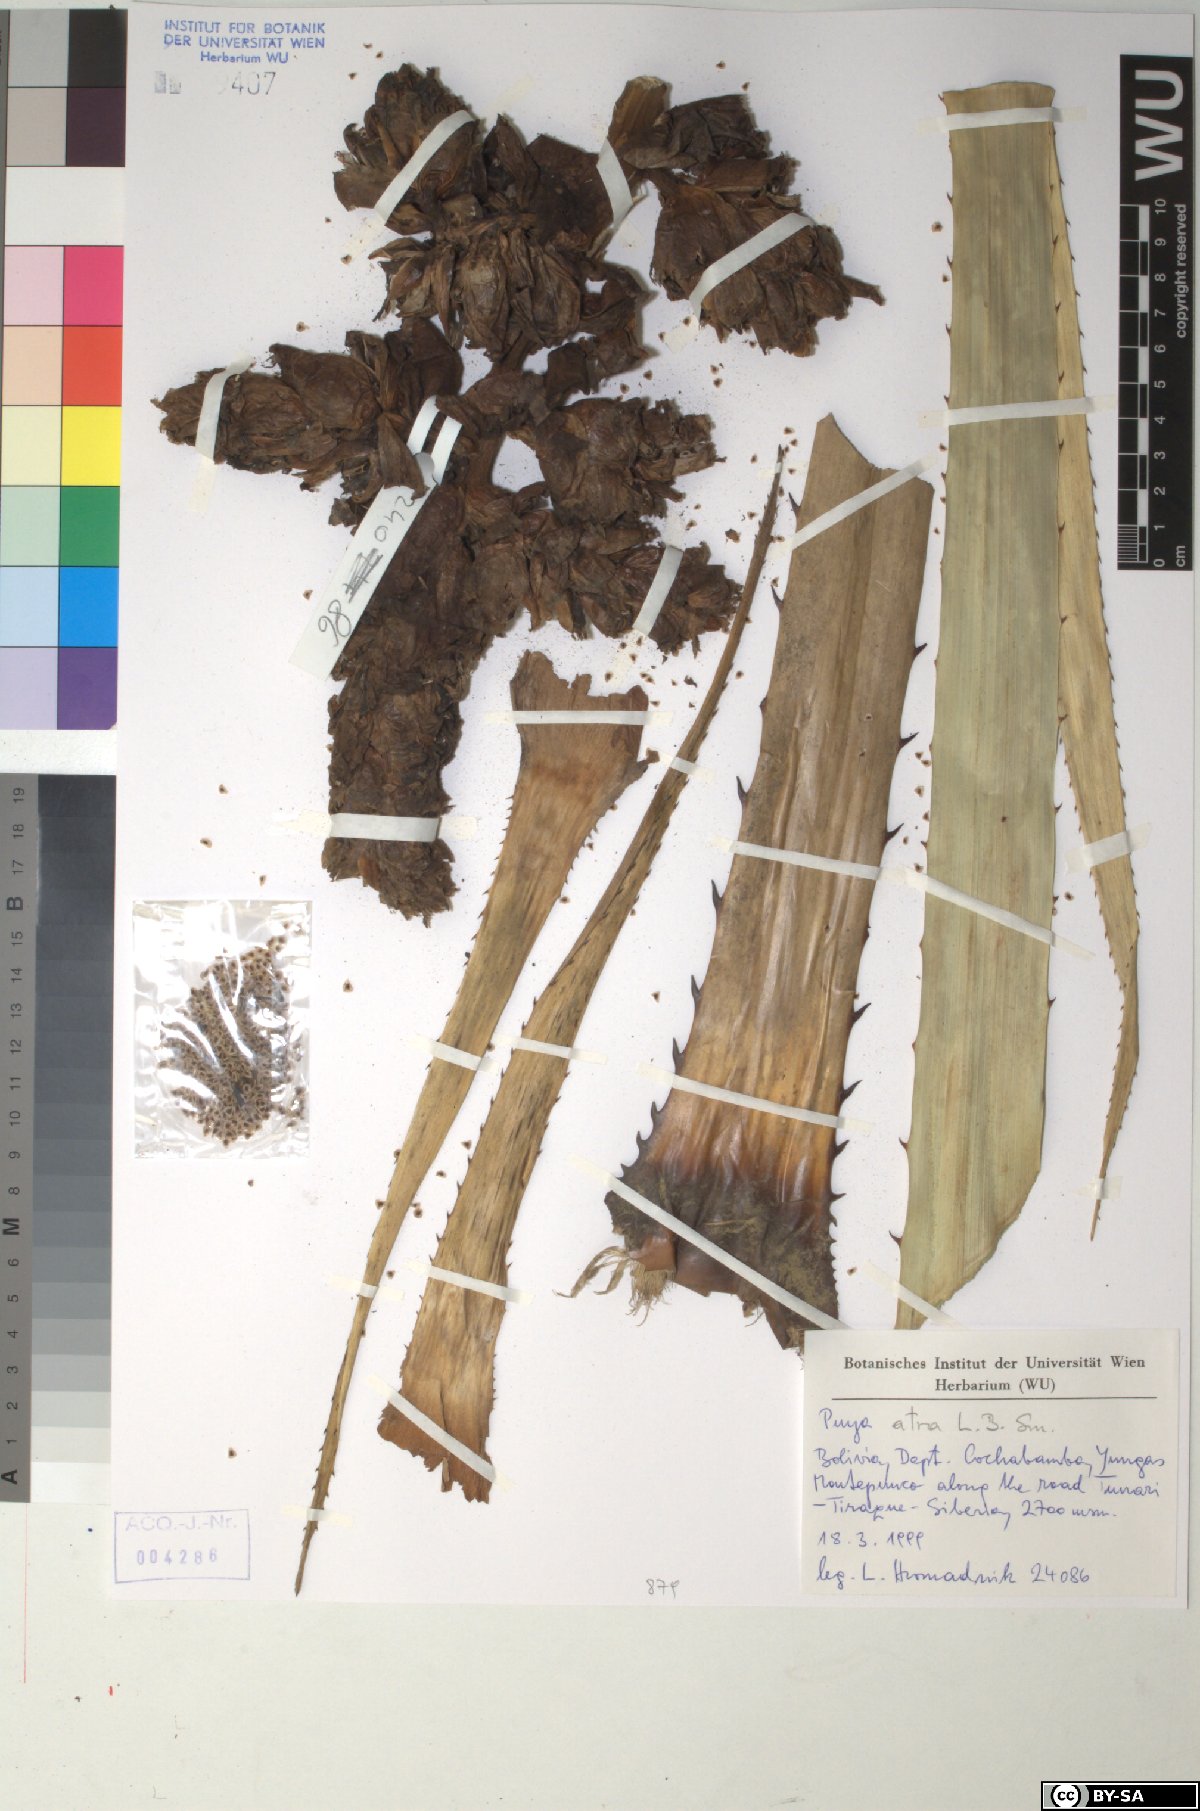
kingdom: Plantae
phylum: Tracheophyta
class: Liliopsida
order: Poales
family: Bromeliaceae
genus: Puya
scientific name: Puya atra
